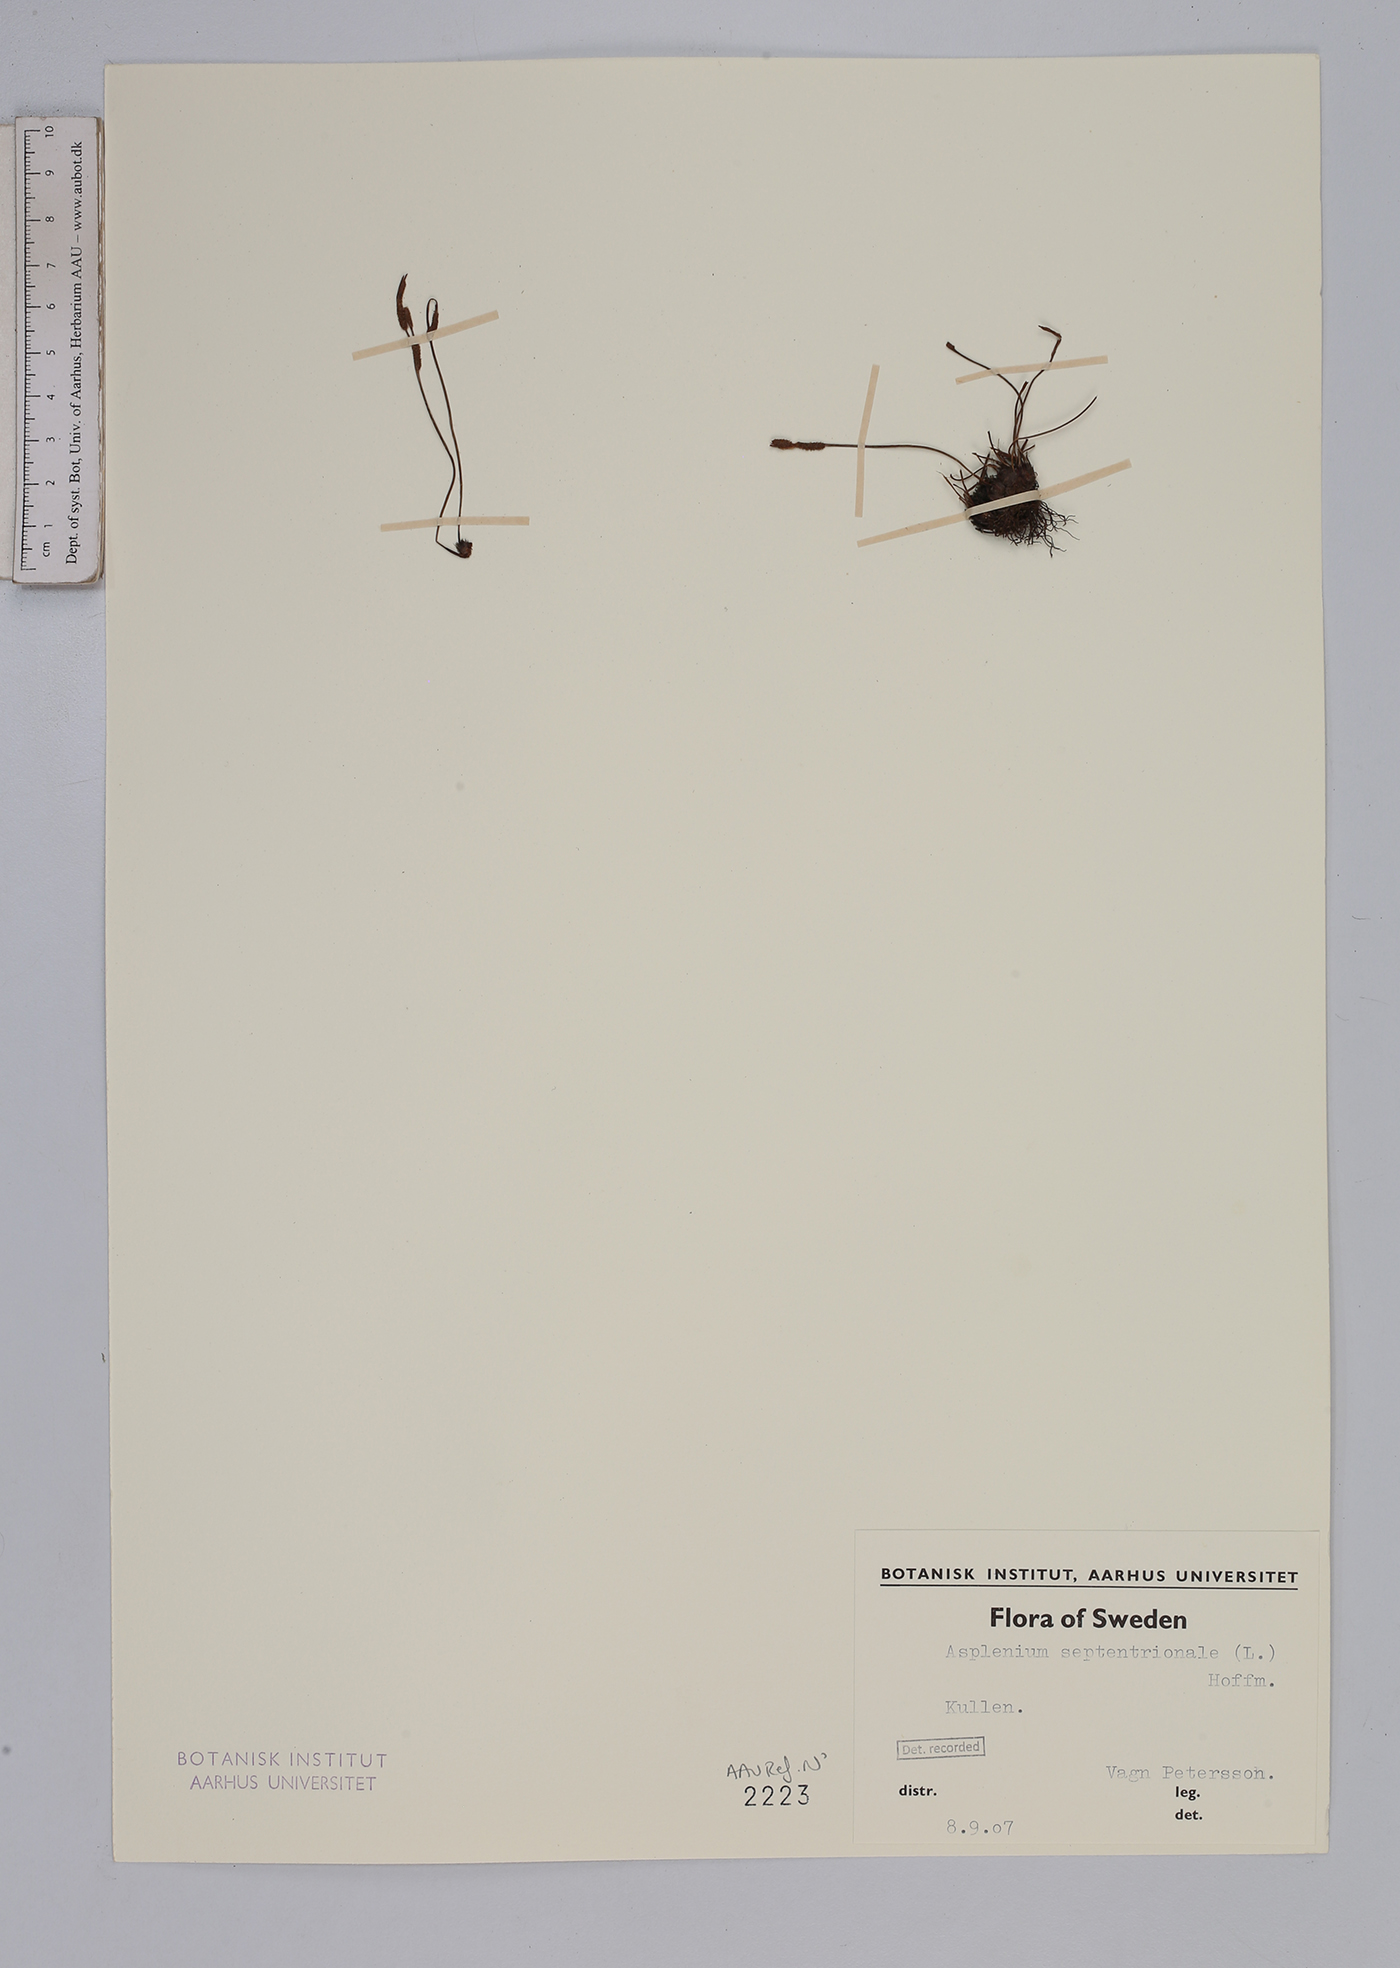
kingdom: Plantae
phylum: Tracheophyta
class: Polypodiopsida
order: Polypodiales
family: Aspleniaceae
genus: Asplenium
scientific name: Asplenium septentrionale
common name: Forked spleenwort
